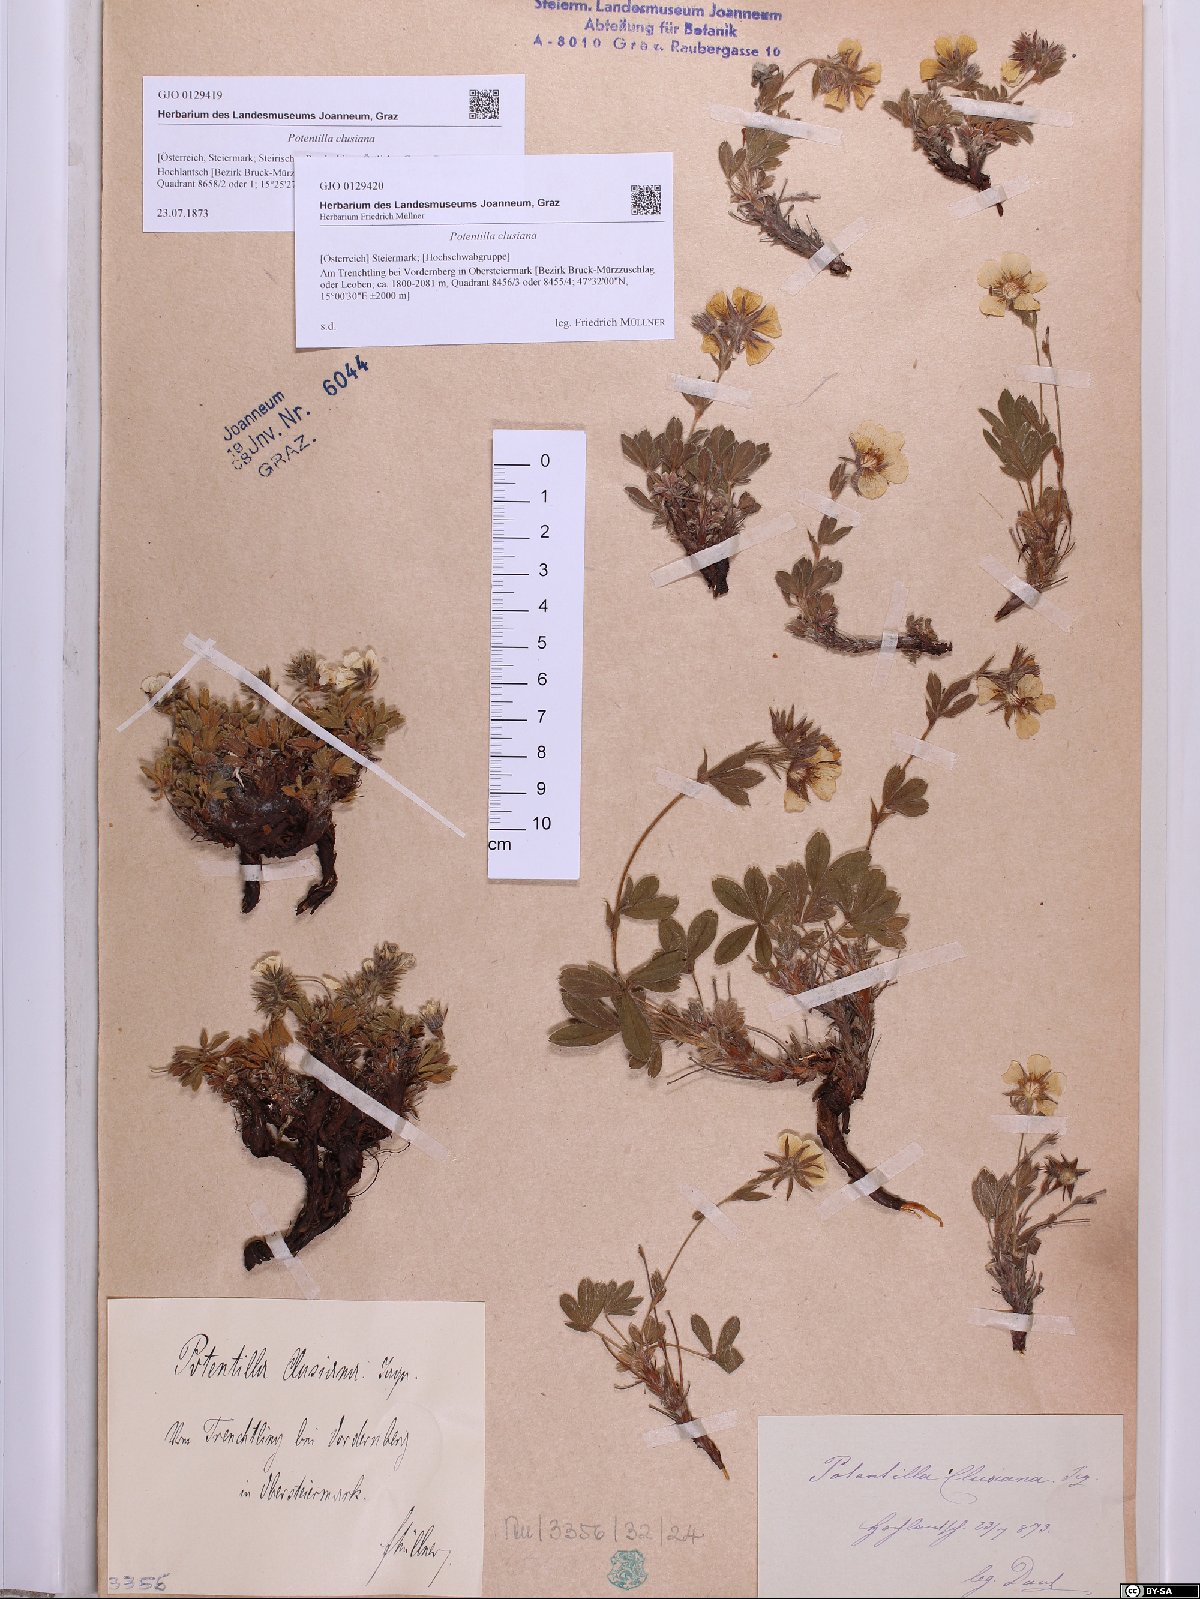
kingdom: Plantae
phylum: Tracheophyta
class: Magnoliopsida
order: Rosales
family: Rosaceae
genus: Potentilla
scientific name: Potentilla clusiana
